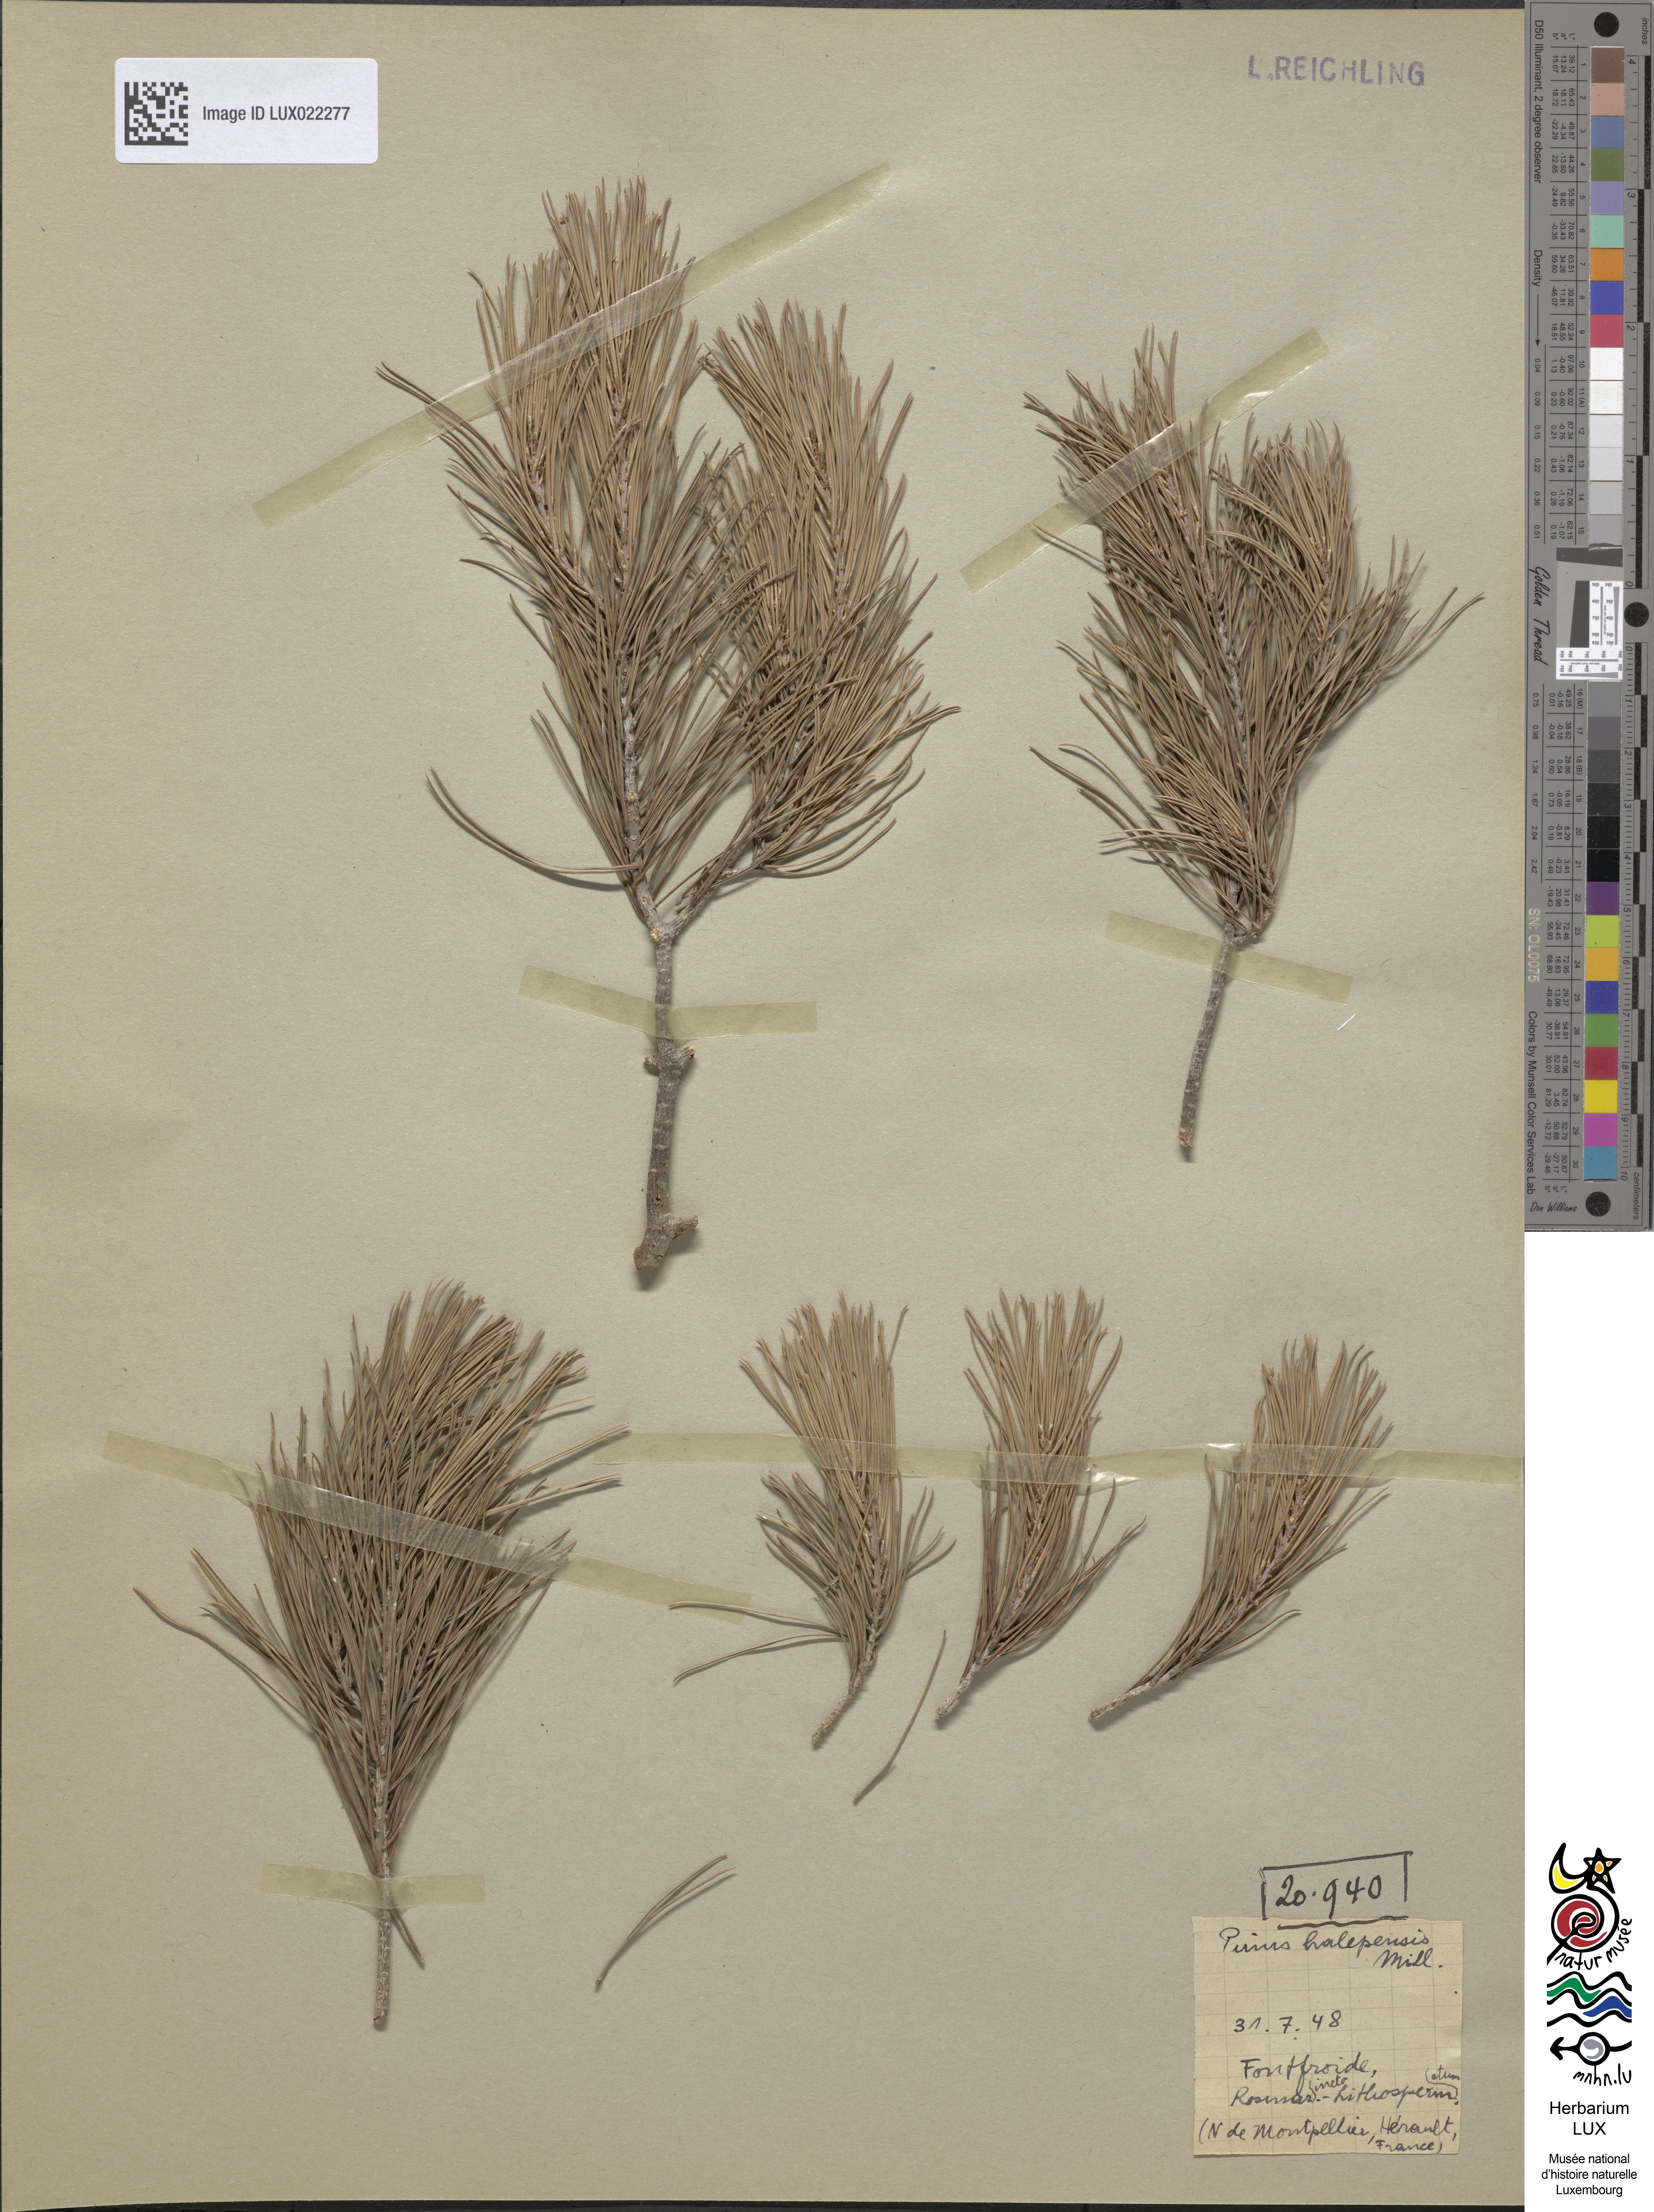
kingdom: Plantae
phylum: Tracheophyta
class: Pinopsida
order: Pinales
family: Pinaceae
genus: Pinus
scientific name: Pinus halepensis
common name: Aleppo pine
